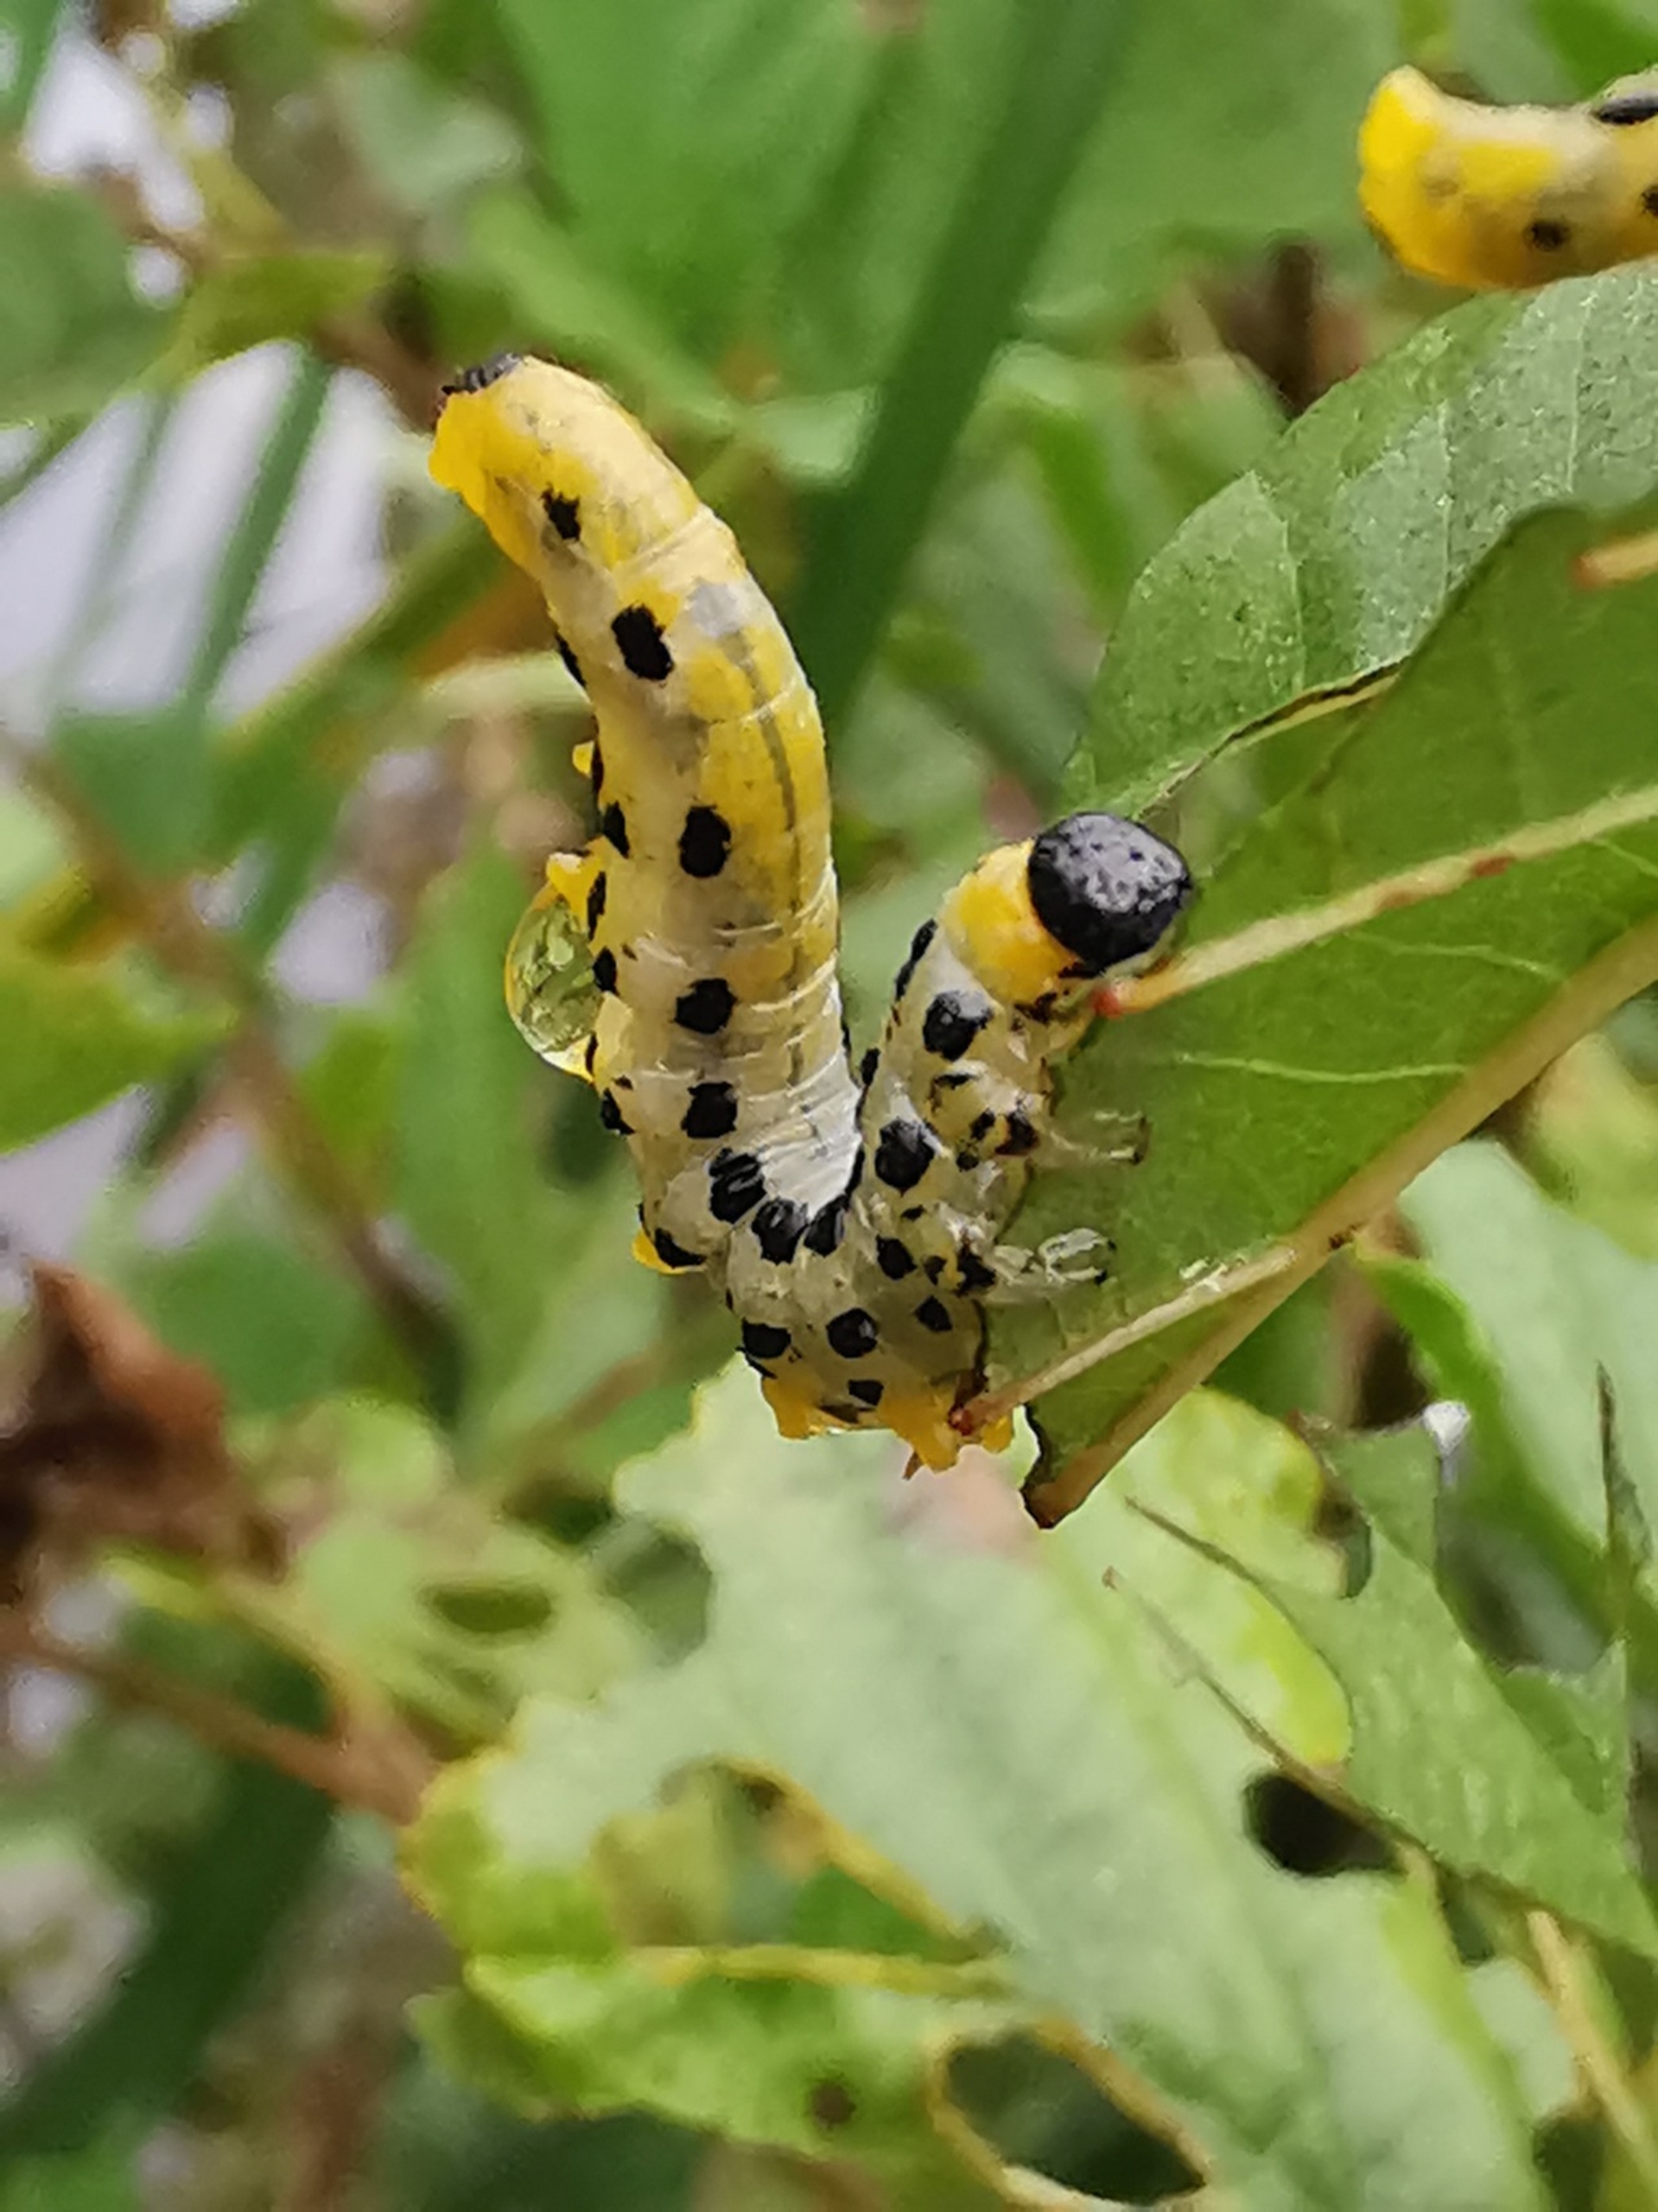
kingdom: Animalia
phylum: Arthropoda
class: Insecta
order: Hymenoptera
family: Tenthredinidae
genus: Craesus
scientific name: Craesus septentrionalis
